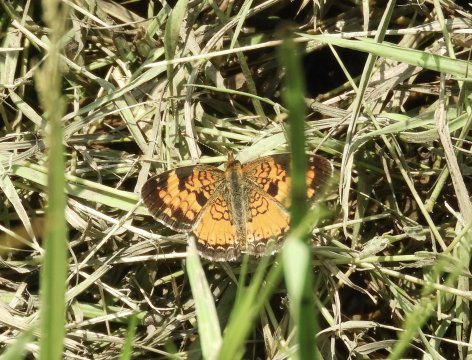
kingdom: Animalia
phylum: Arthropoda
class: Insecta
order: Lepidoptera
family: Nymphalidae
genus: Phyciodes
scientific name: Phyciodes
